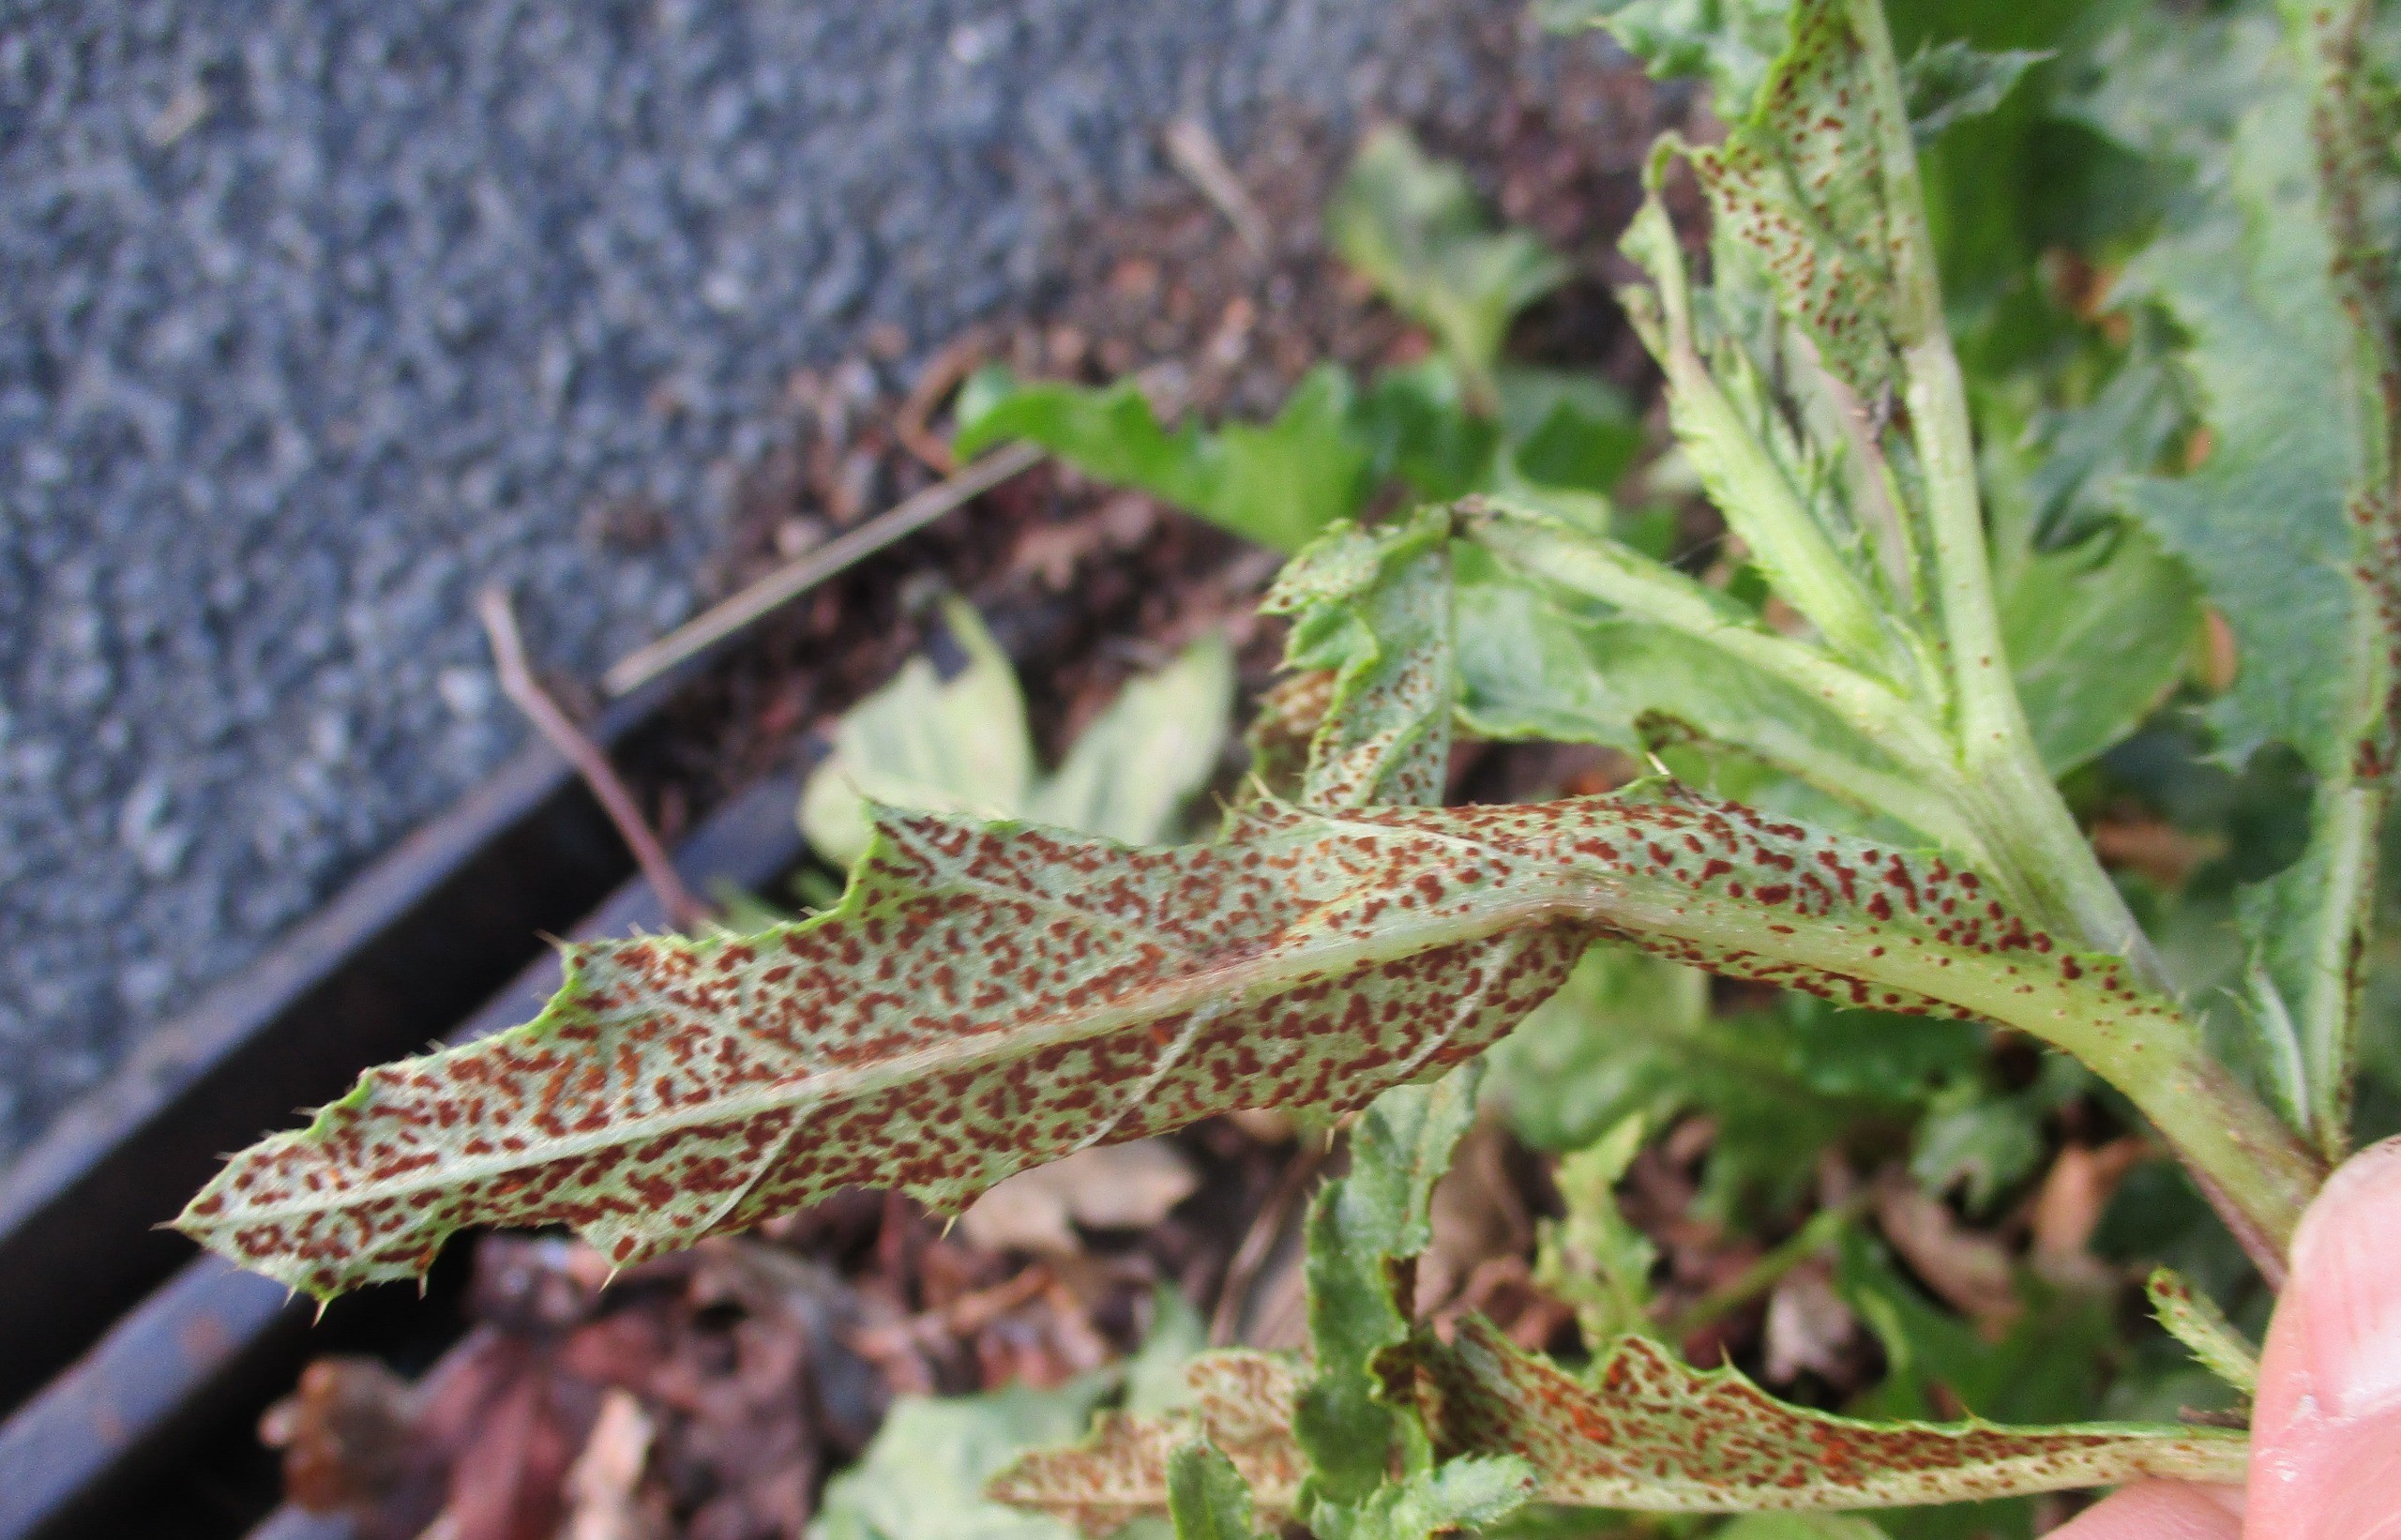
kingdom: Fungi
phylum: Basidiomycota
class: Pucciniomycetes
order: Pucciniales
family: Pucciniaceae
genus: Puccinia
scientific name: Puccinia suaveolens
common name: Tidsel-tvecellerust
